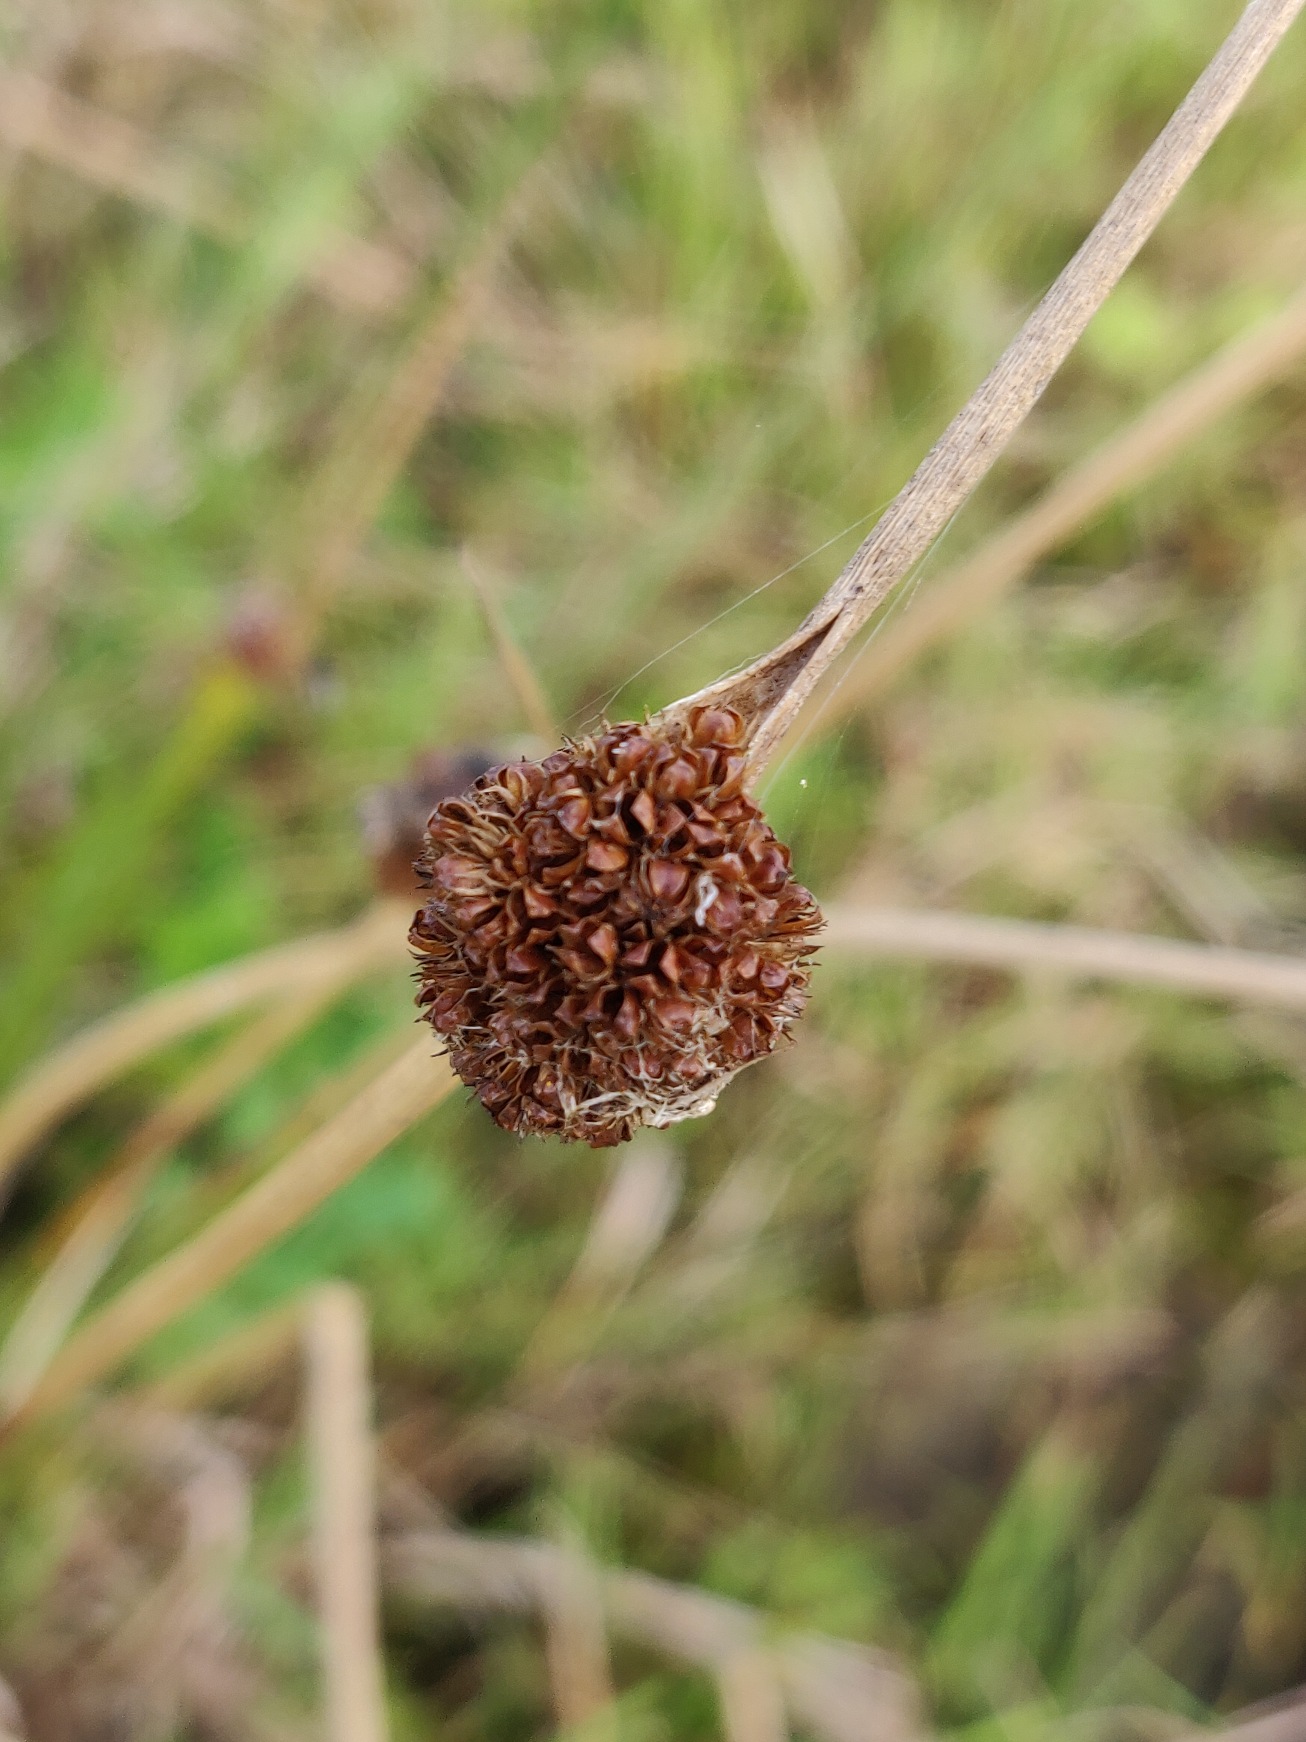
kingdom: Plantae
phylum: Tracheophyta
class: Liliopsida
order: Poales
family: Juncaceae
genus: Juncus
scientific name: Juncus conglomeratus
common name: Knop-siv
